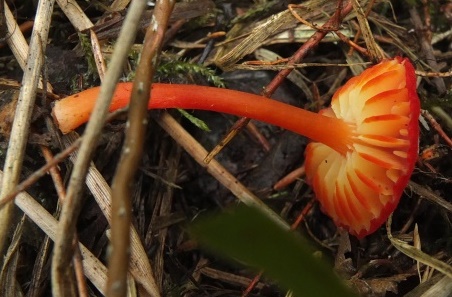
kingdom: Fungi
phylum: Basidiomycota
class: Agaricomycetes
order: Agaricales
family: Hygrophoraceae
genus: Hygrocybe
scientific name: Hygrocybe helobia
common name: hvidløgs-vokshat
